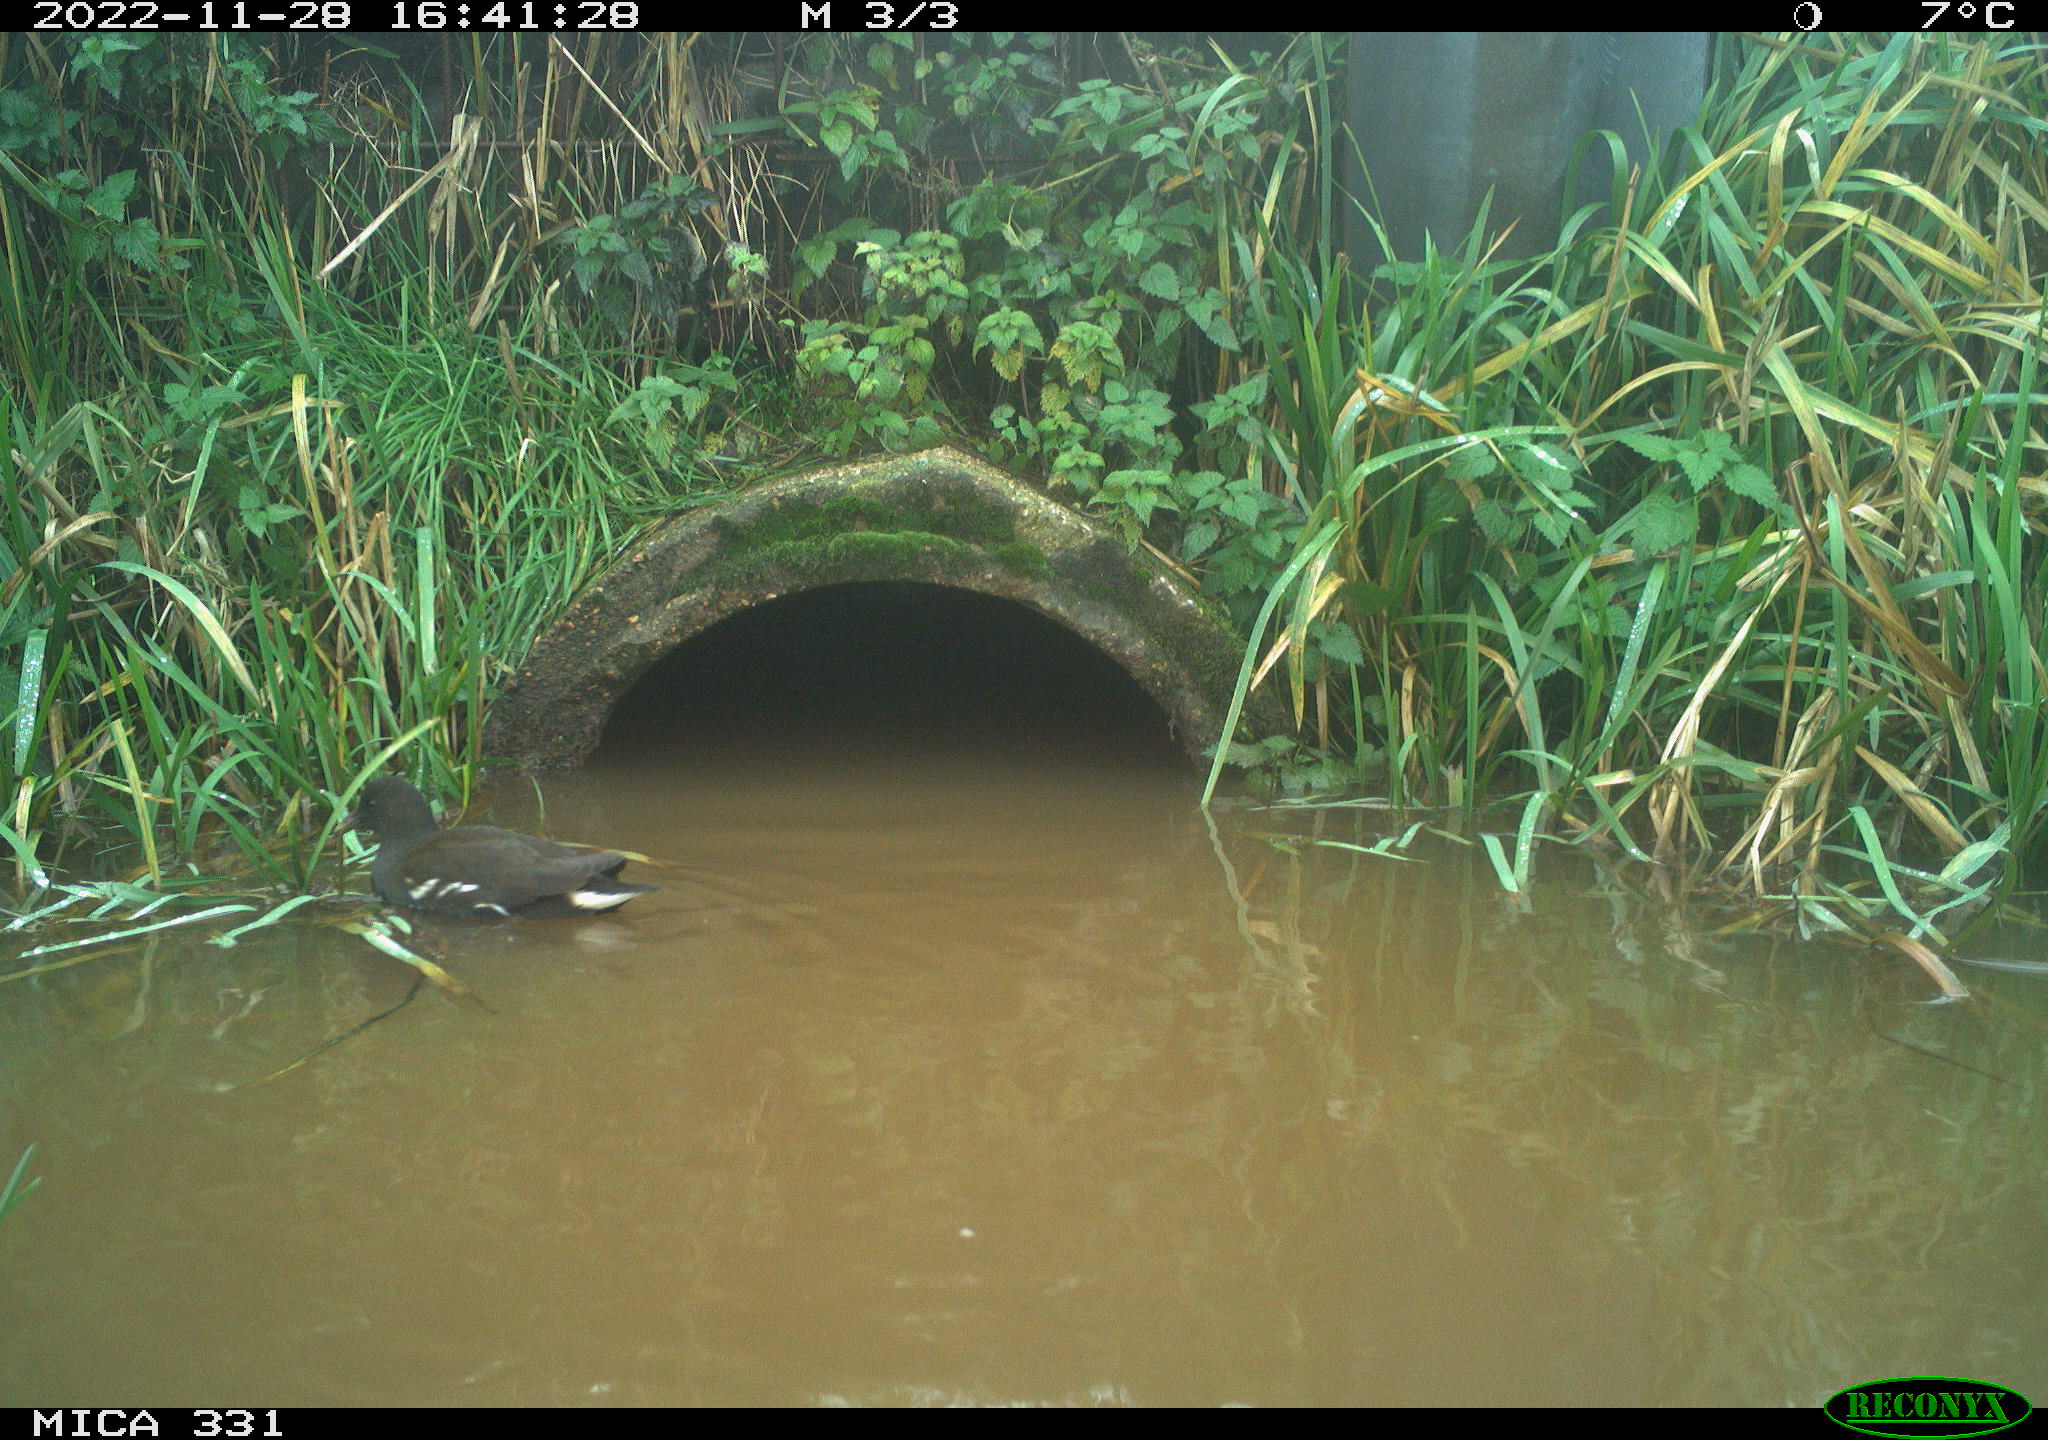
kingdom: Animalia
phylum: Chordata
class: Aves
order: Gruiformes
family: Rallidae
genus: Gallinula
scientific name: Gallinula chloropus
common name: Common moorhen
